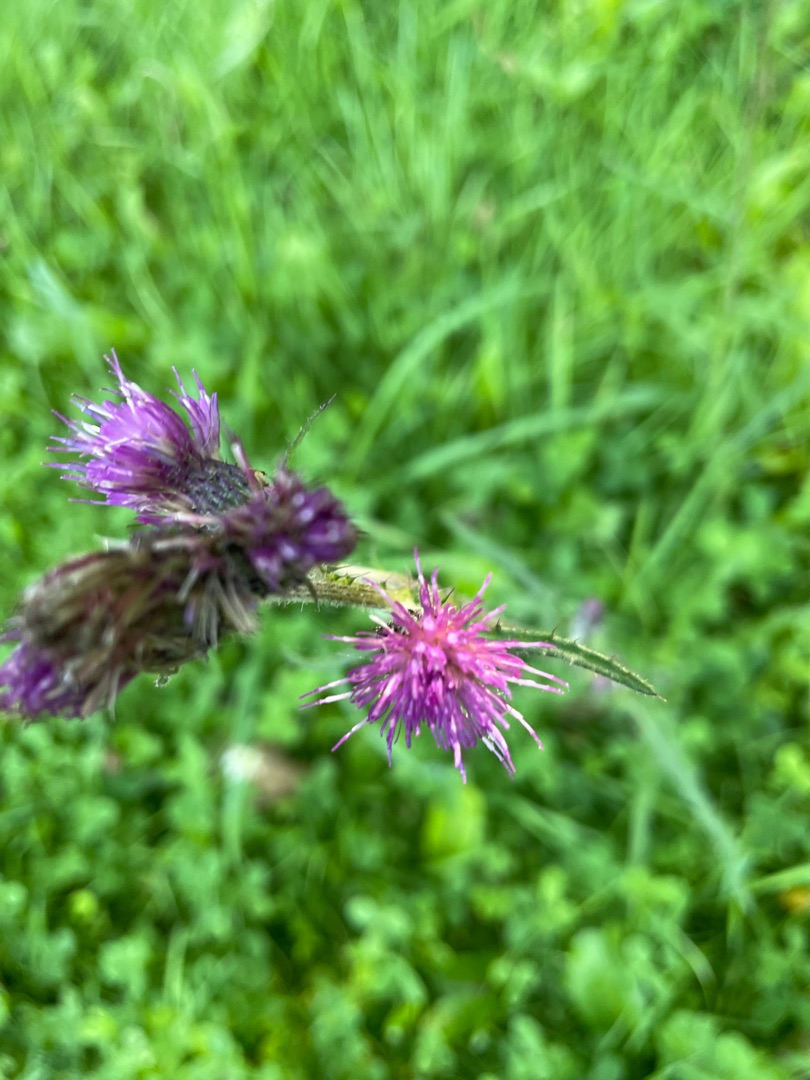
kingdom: Plantae
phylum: Tracheophyta
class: Magnoliopsida
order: Asterales
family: Asteraceae
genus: Cirsium
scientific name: Cirsium palustre
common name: Kær-tidsel
